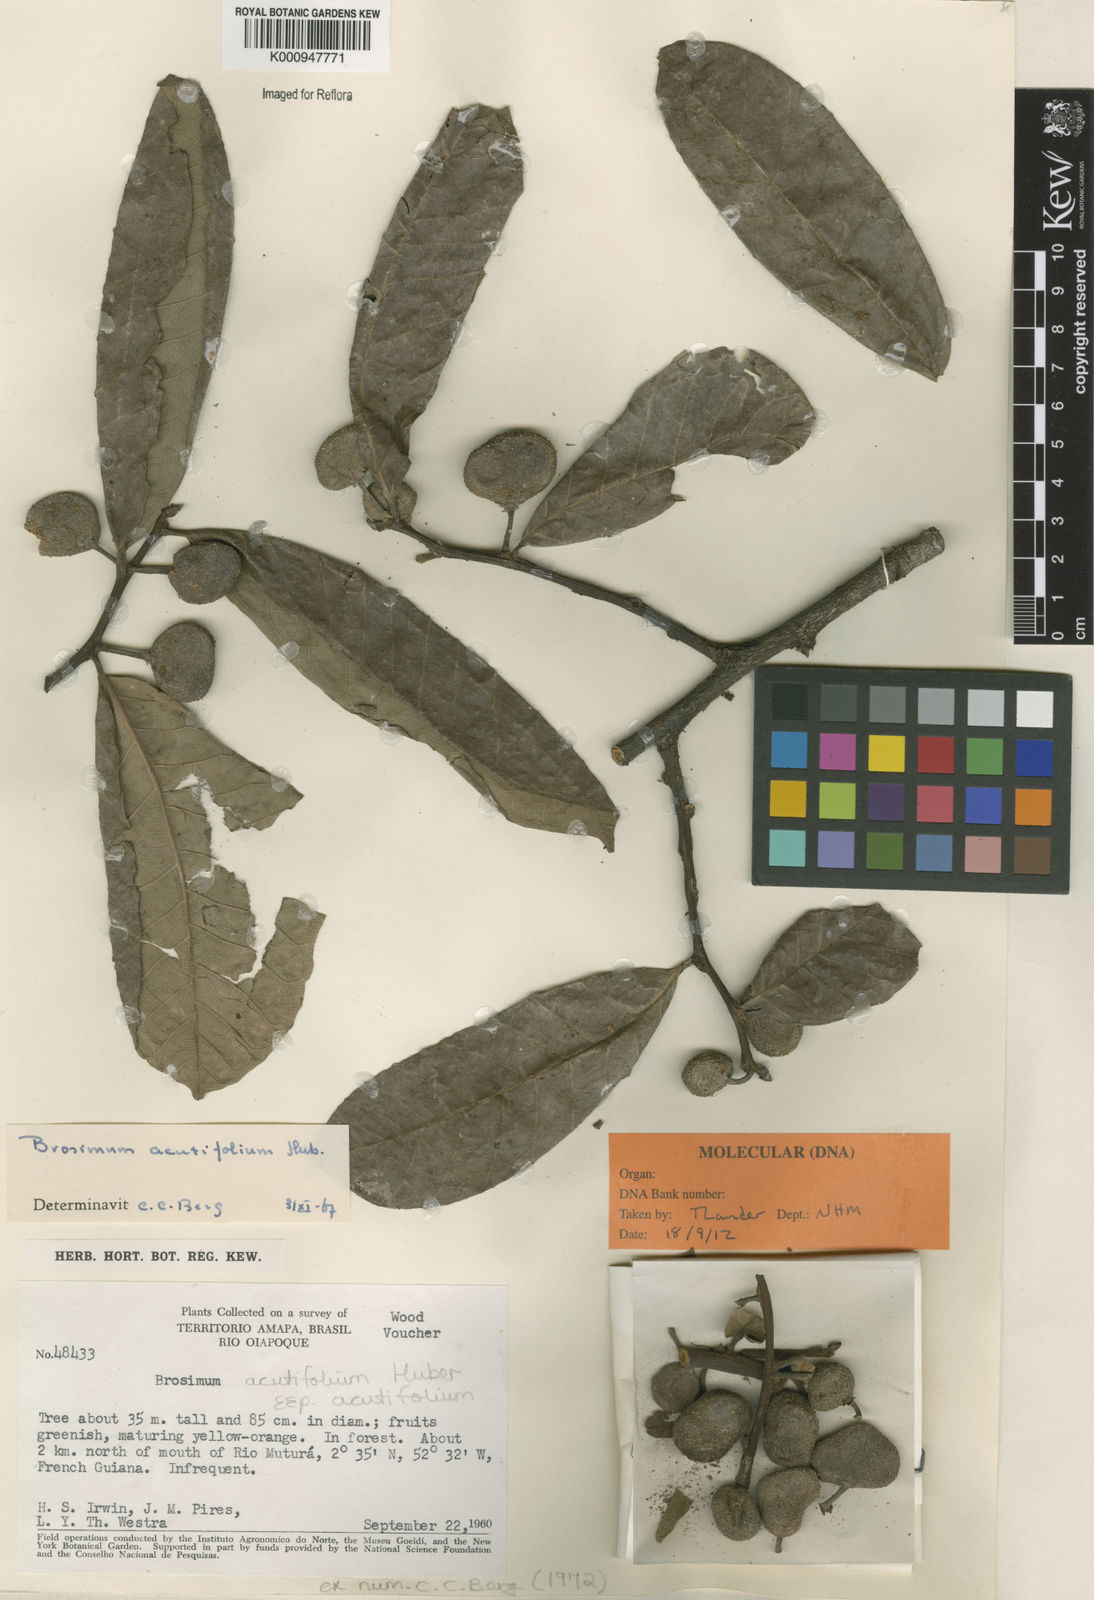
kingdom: Plantae
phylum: Tracheophyta
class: Magnoliopsida
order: Rosales
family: Moraceae
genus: Brosimum
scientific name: Brosimum acutifolium
